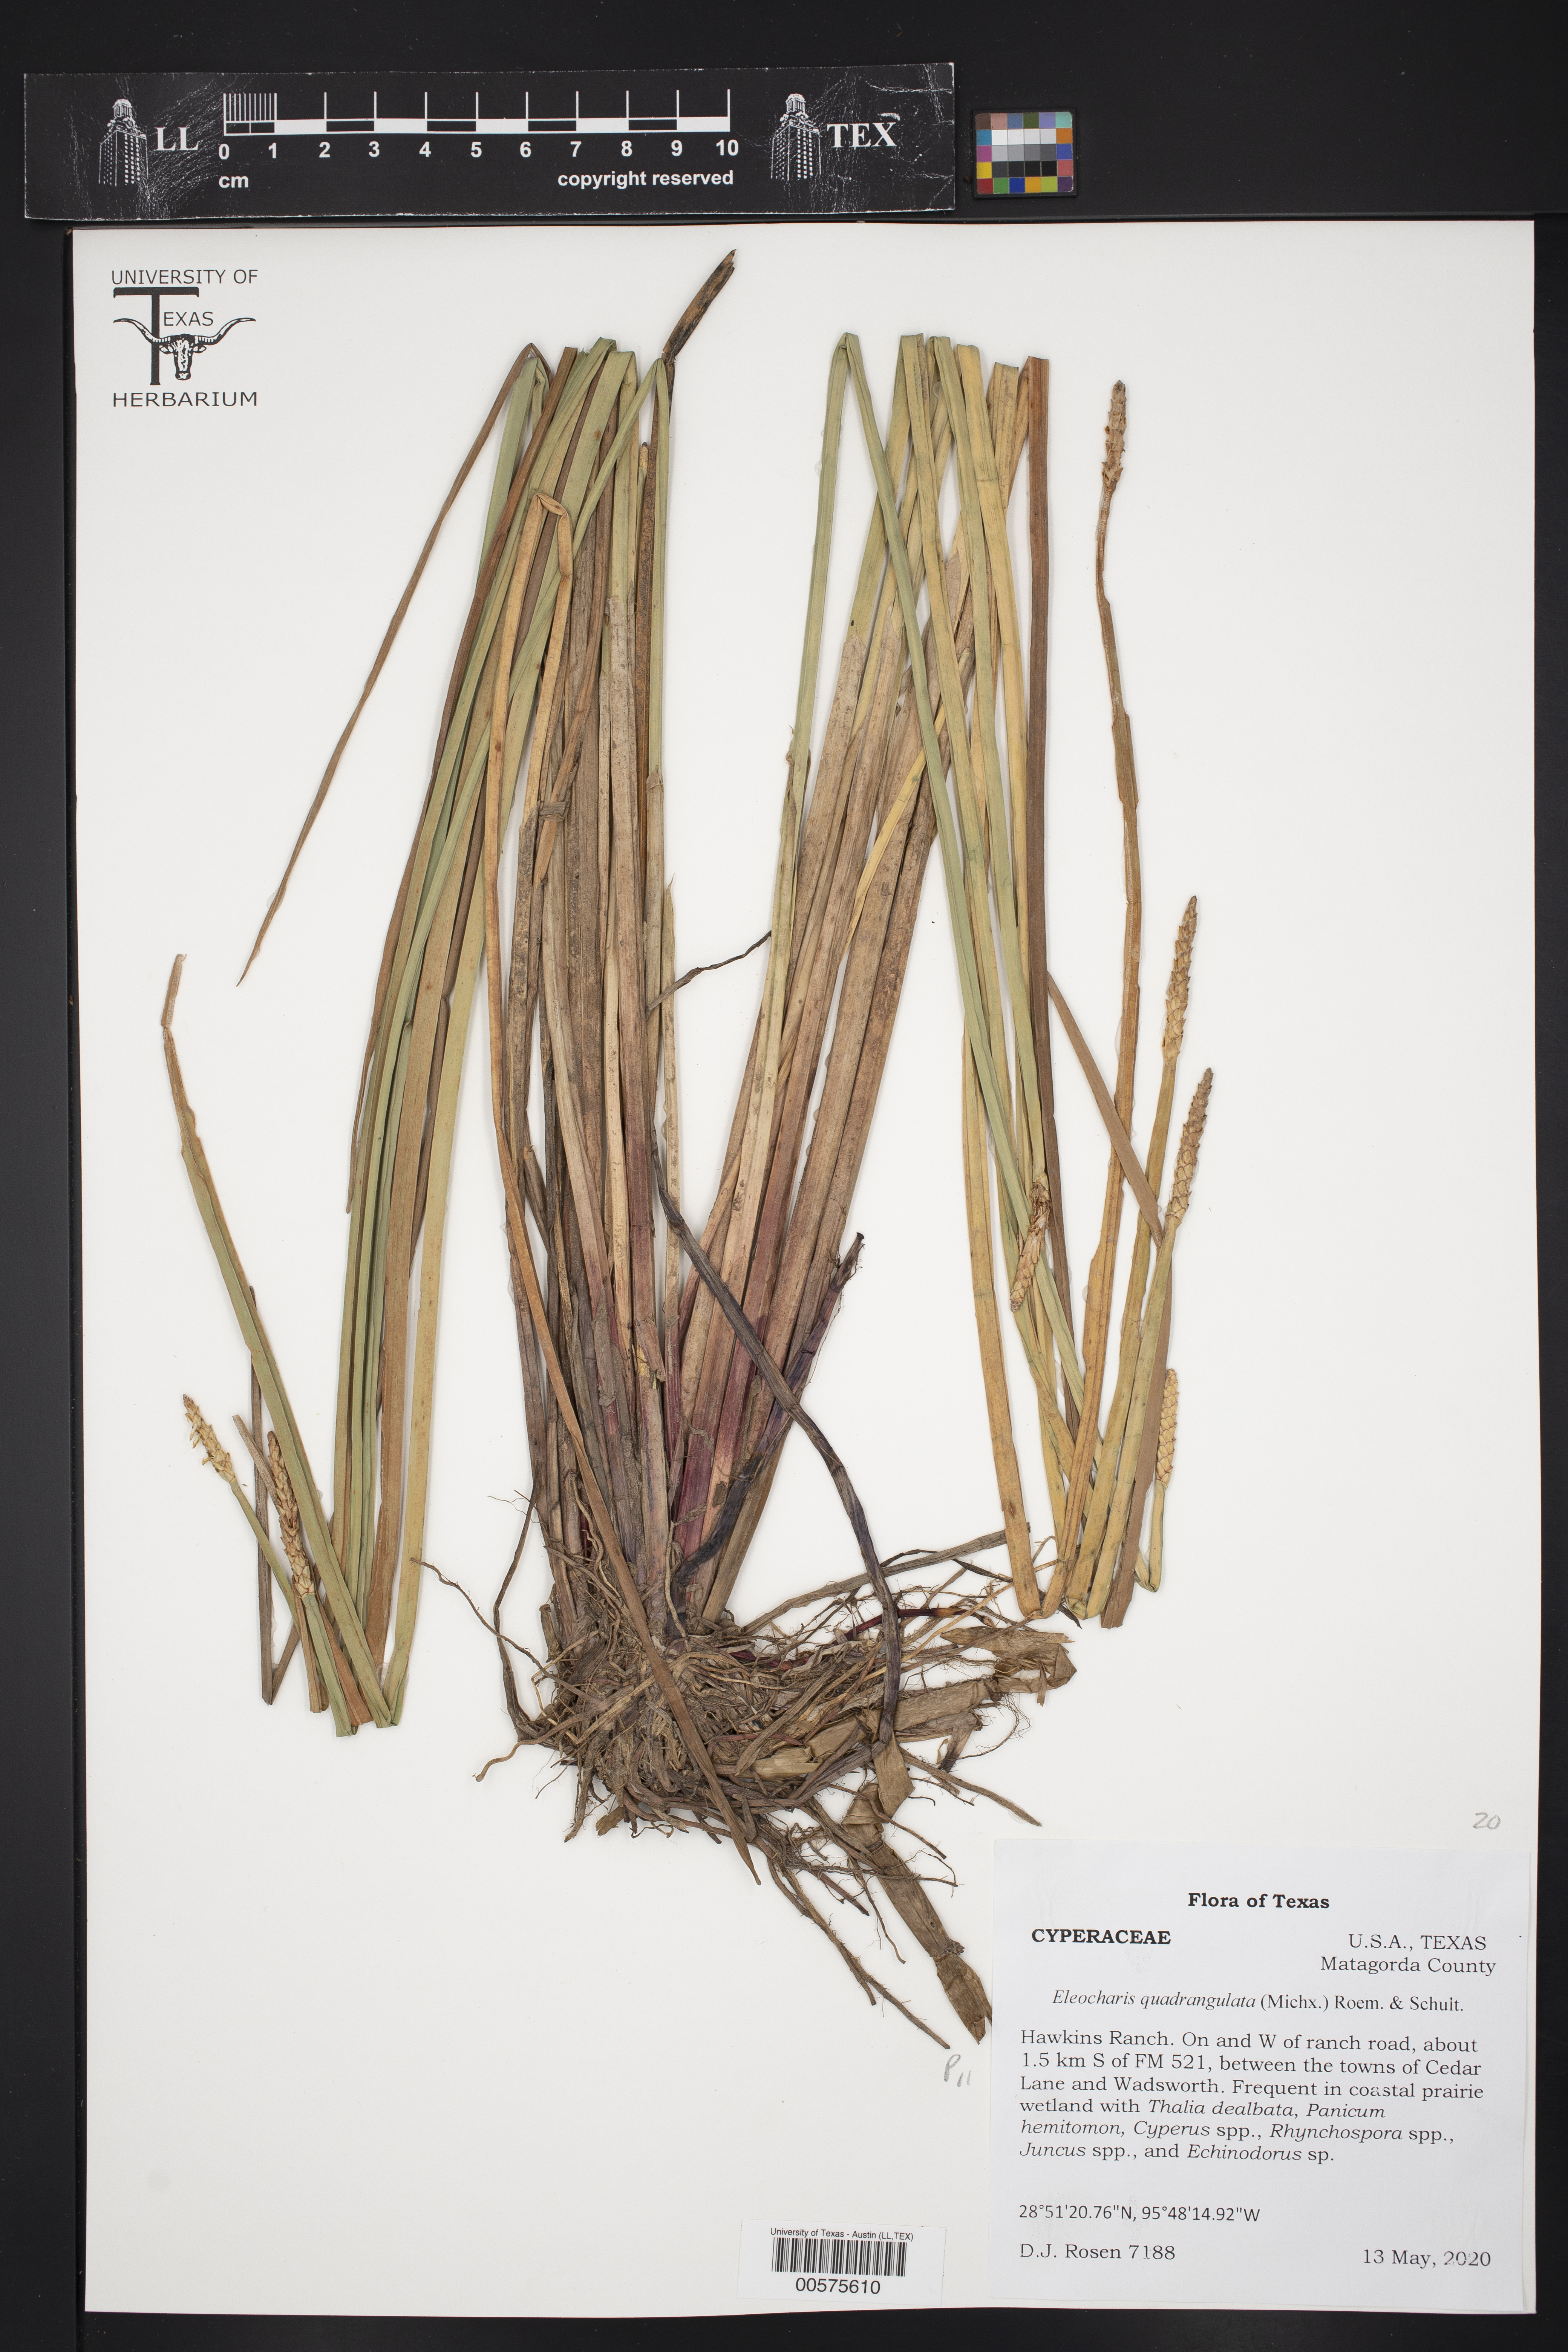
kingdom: Plantae
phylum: Tracheophyta
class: Liliopsida
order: Poales
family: Cyperaceae
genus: Eleocharis
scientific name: Eleocharis quadrangulata
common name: Square-stem spike-rush
